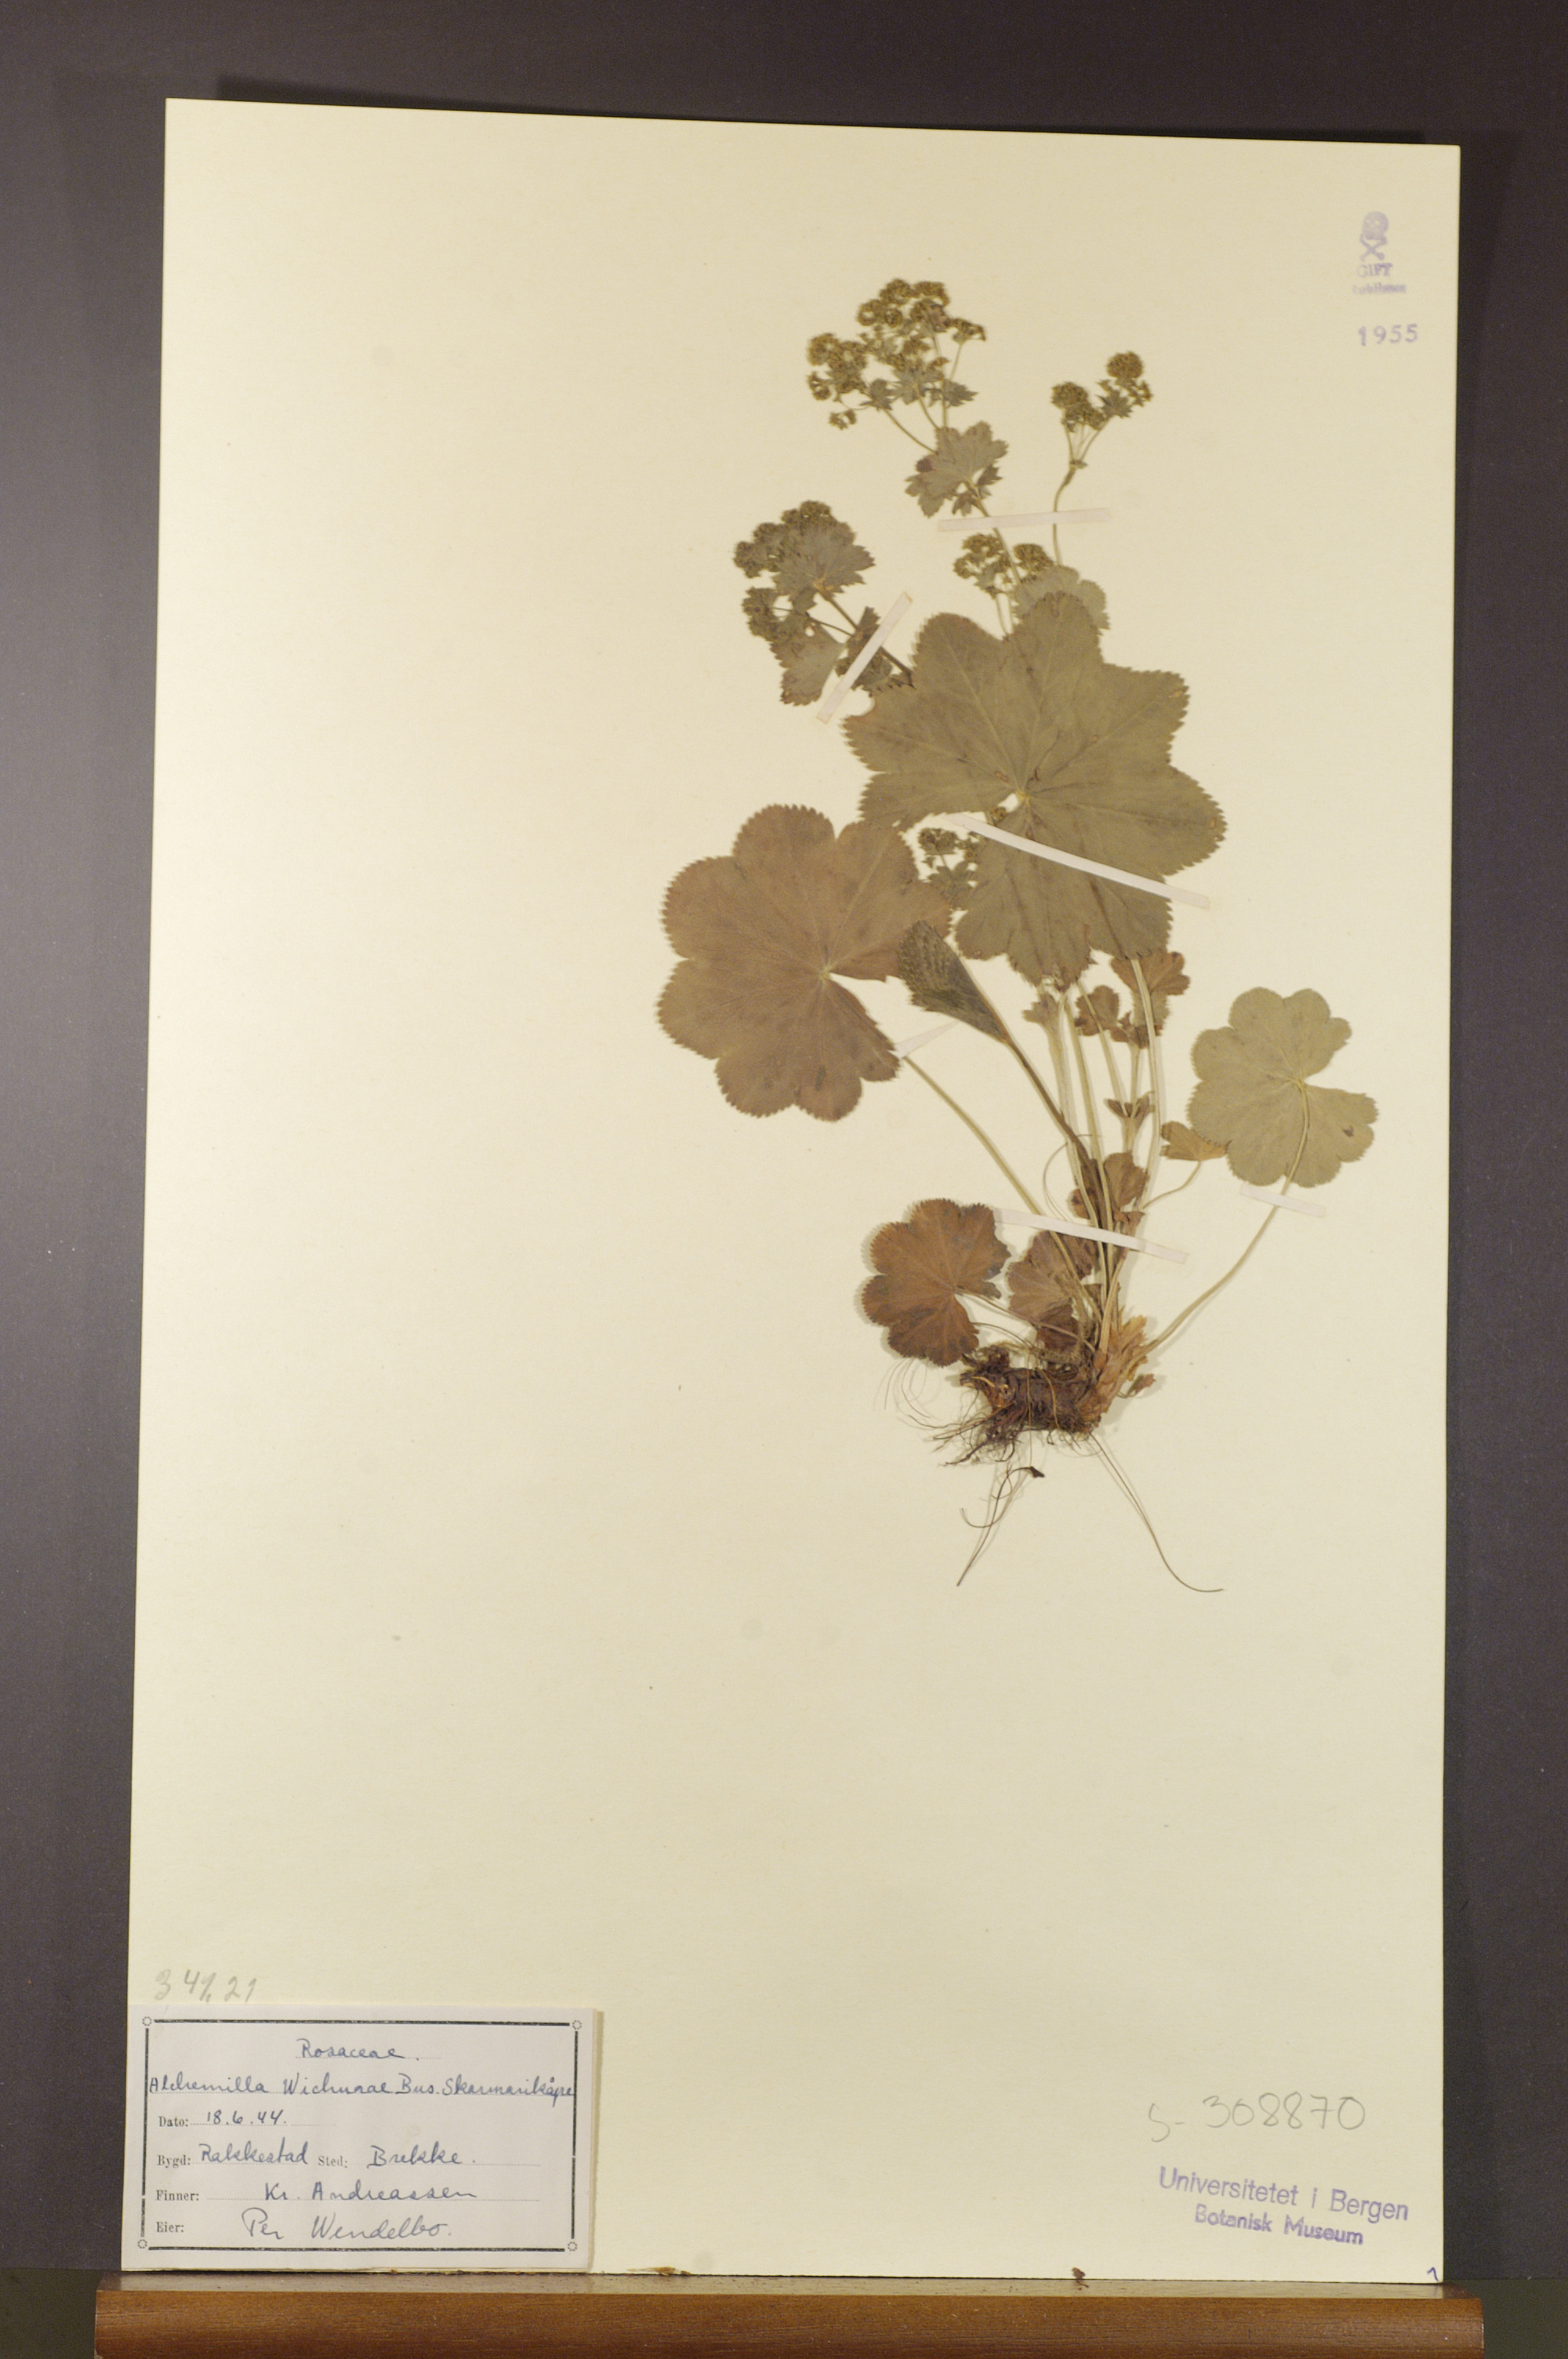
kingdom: Plantae
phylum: Tracheophyta
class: Magnoliopsida
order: Rosales
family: Rosaceae
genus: Alchemilla
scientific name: Alchemilla wichurae
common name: Rock lady's mantle
